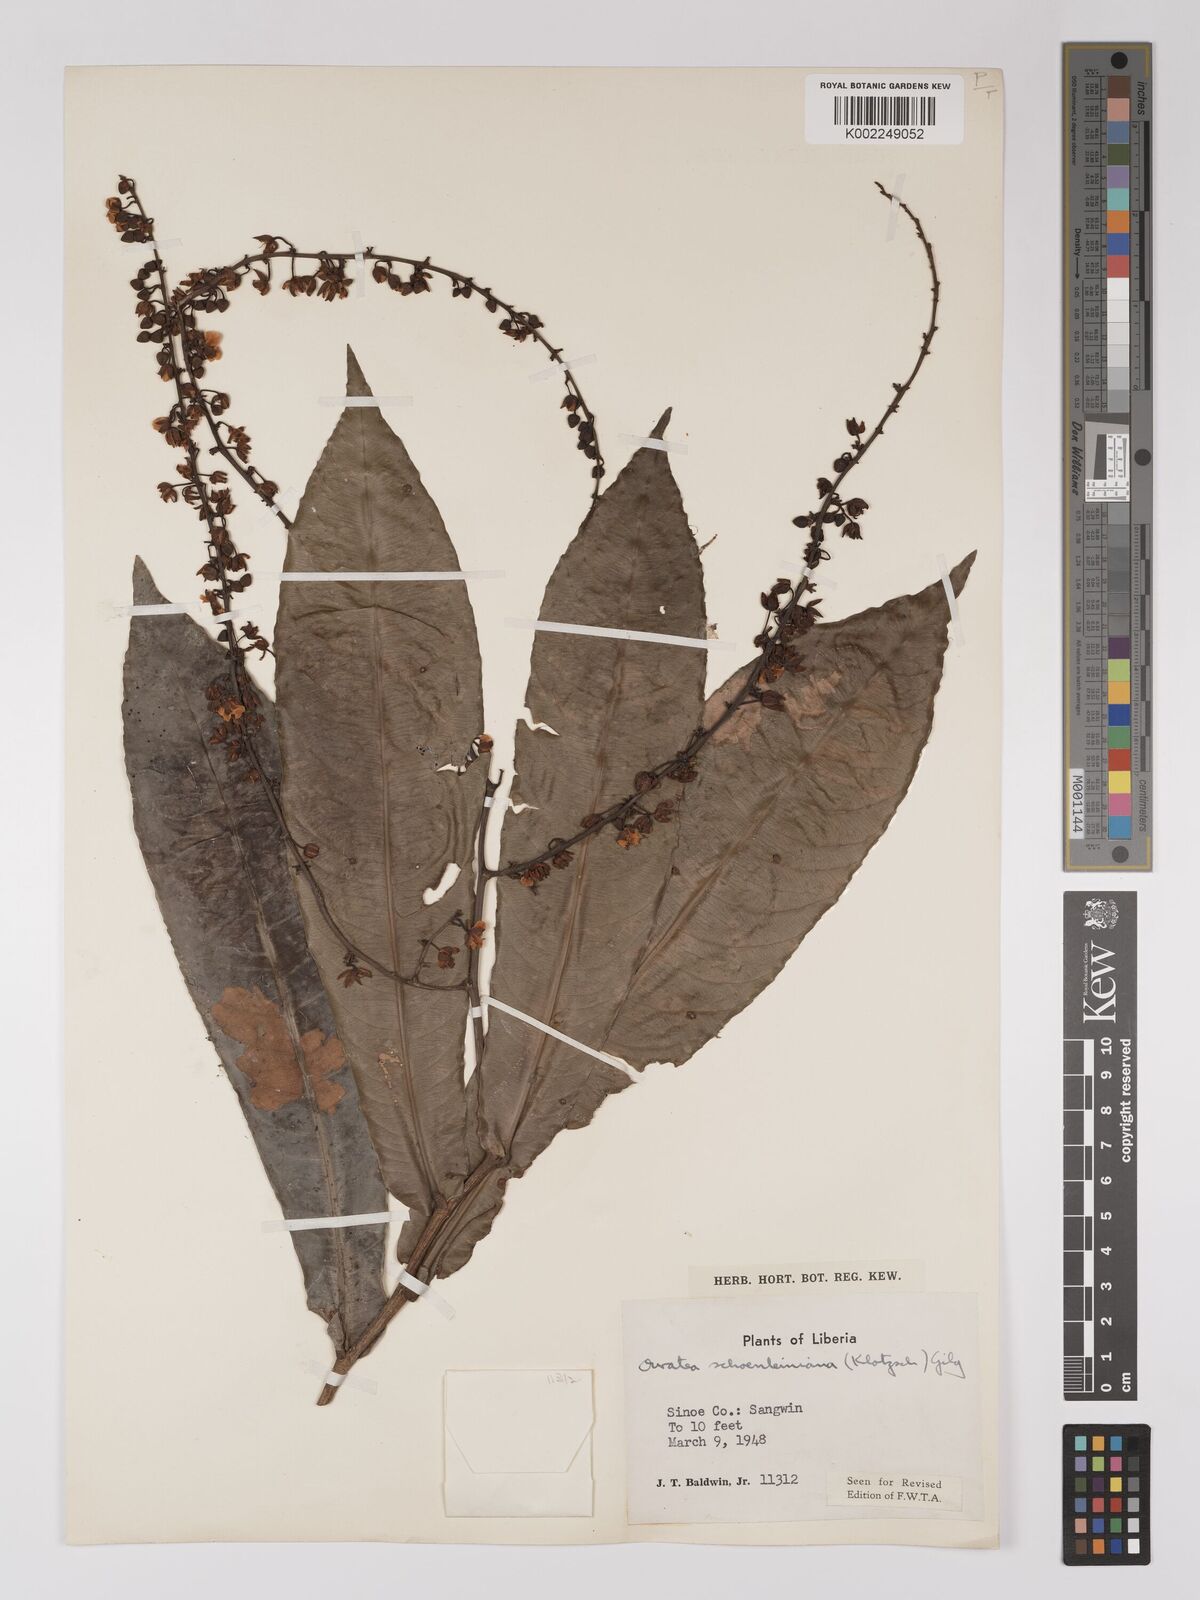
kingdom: Plantae
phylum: Tracheophyta
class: Magnoliopsida
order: Malpighiales
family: Ochnaceae
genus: Campylospermum
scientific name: Campylospermum schoenleinianum
